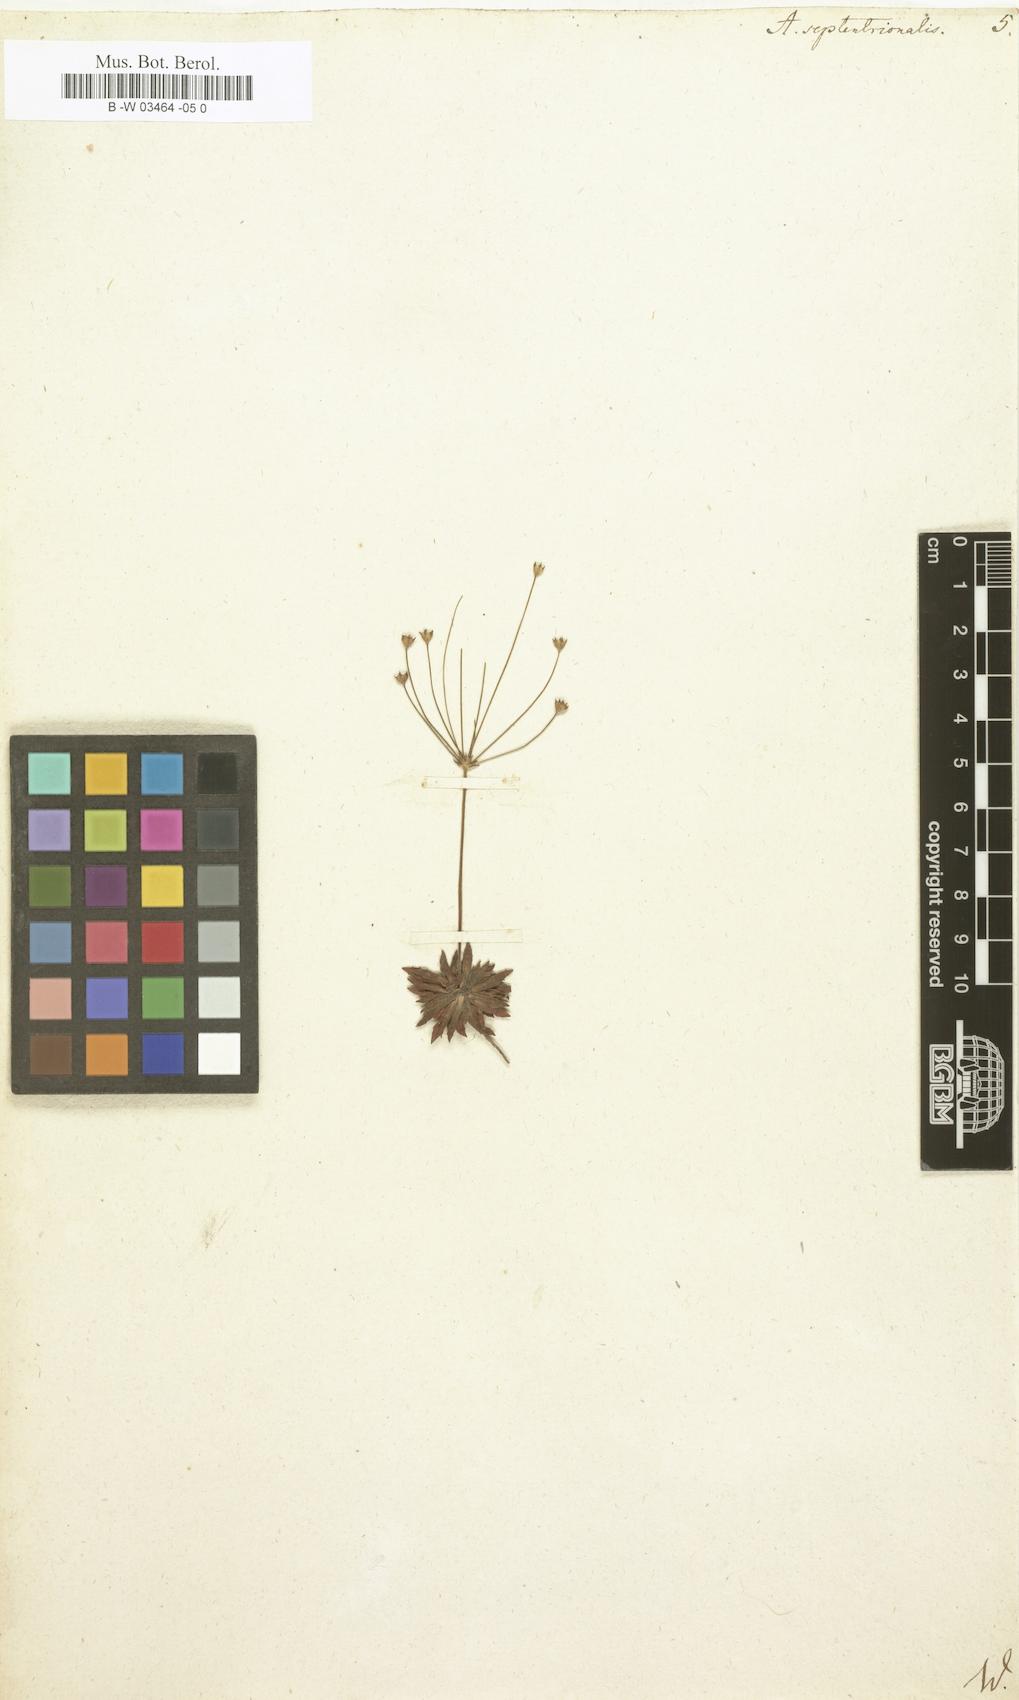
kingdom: Plantae
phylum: Tracheophyta
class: Magnoliopsida
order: Ericales
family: Primulaceae
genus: Androsace
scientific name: Androsace septentrionalis
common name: Hairy northern fairy-candelabra
